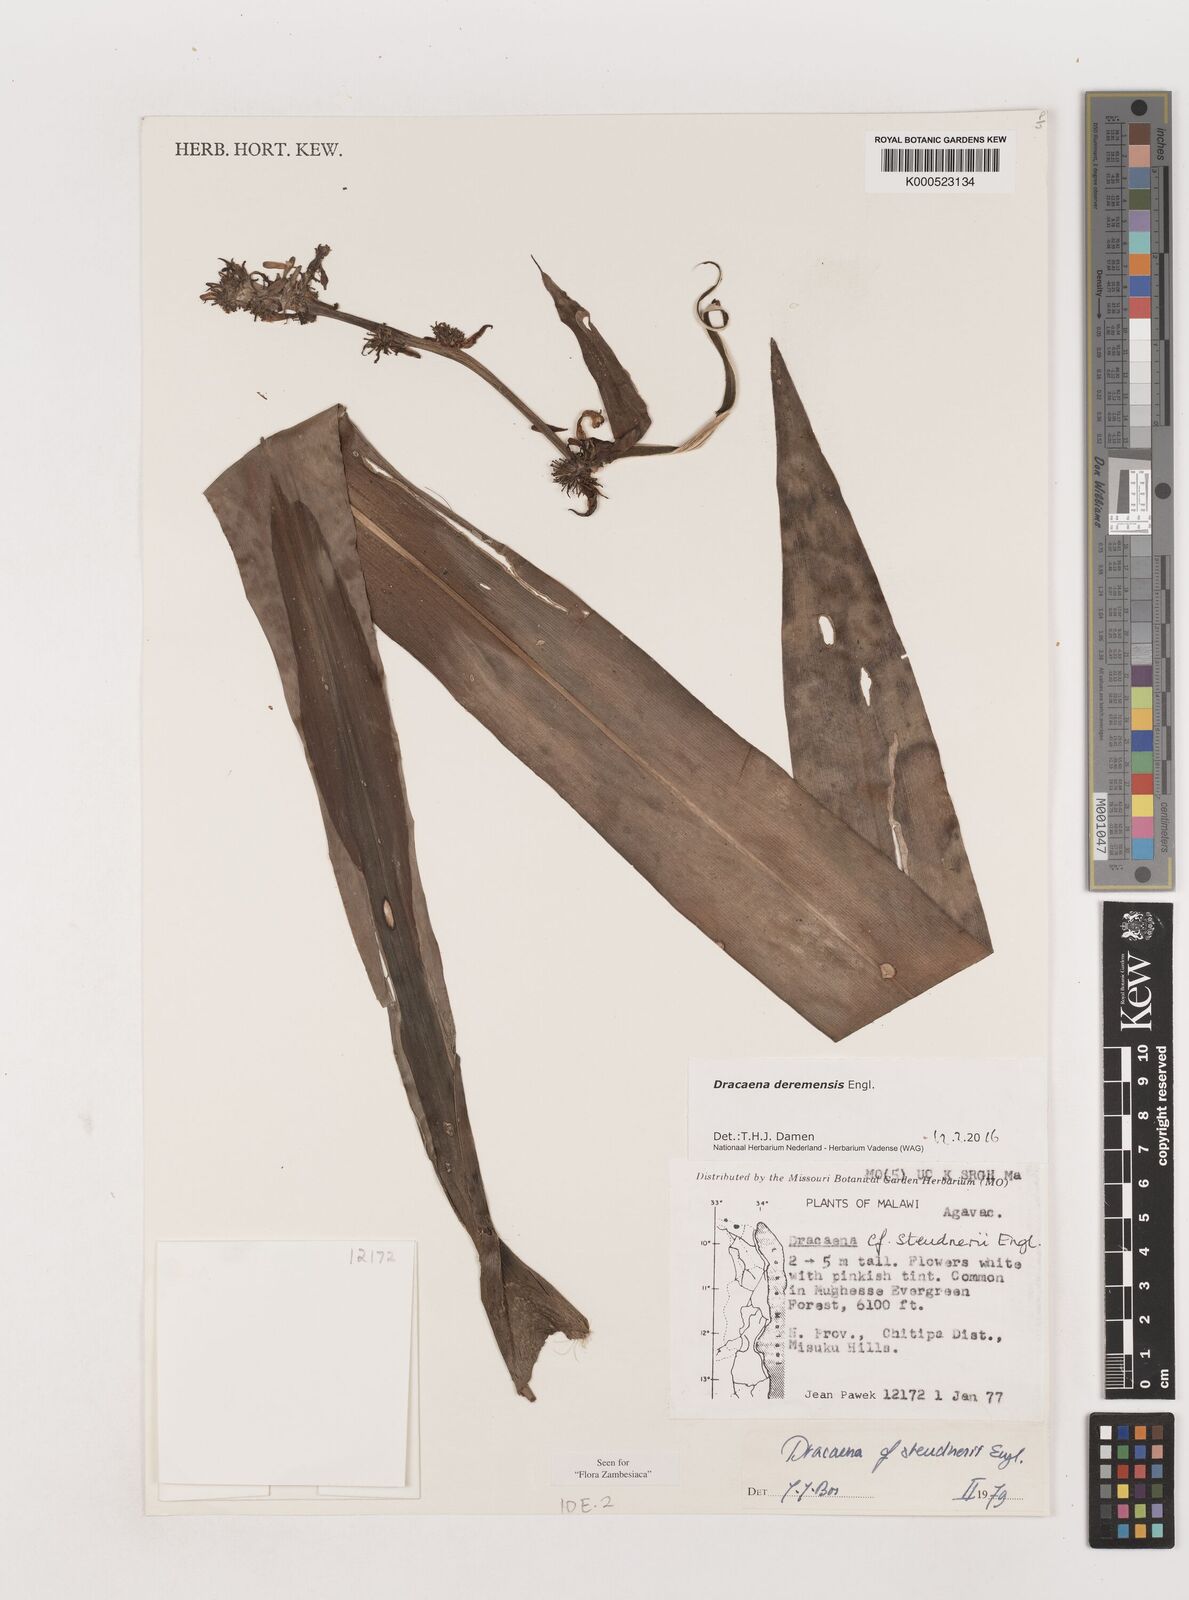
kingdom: Plantae
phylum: Tracheophyta
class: Liliopsida
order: Asparagales
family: Asparagaceae
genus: Dracaena
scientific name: Dracaena steudneri
